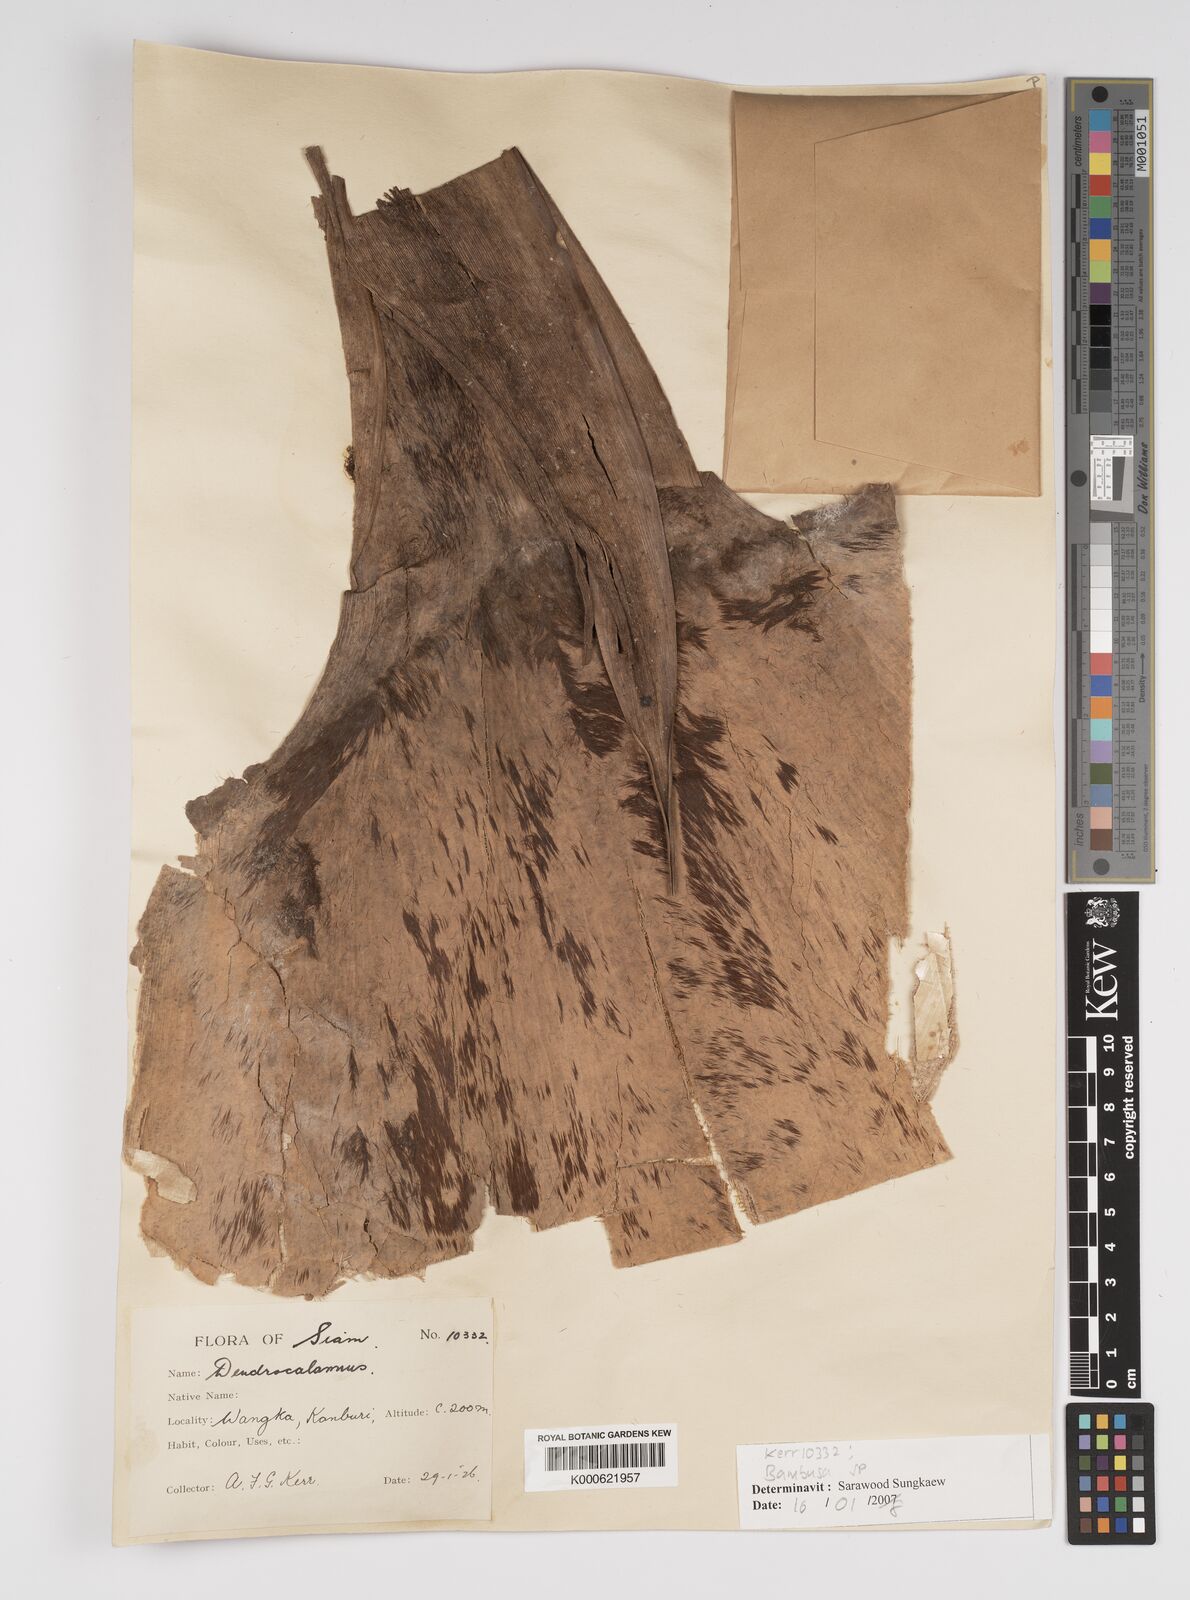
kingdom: Plantae
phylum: Tracheophyta
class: Liliopsida
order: Poales
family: Poaceae
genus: Bambusa
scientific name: Bambusa
